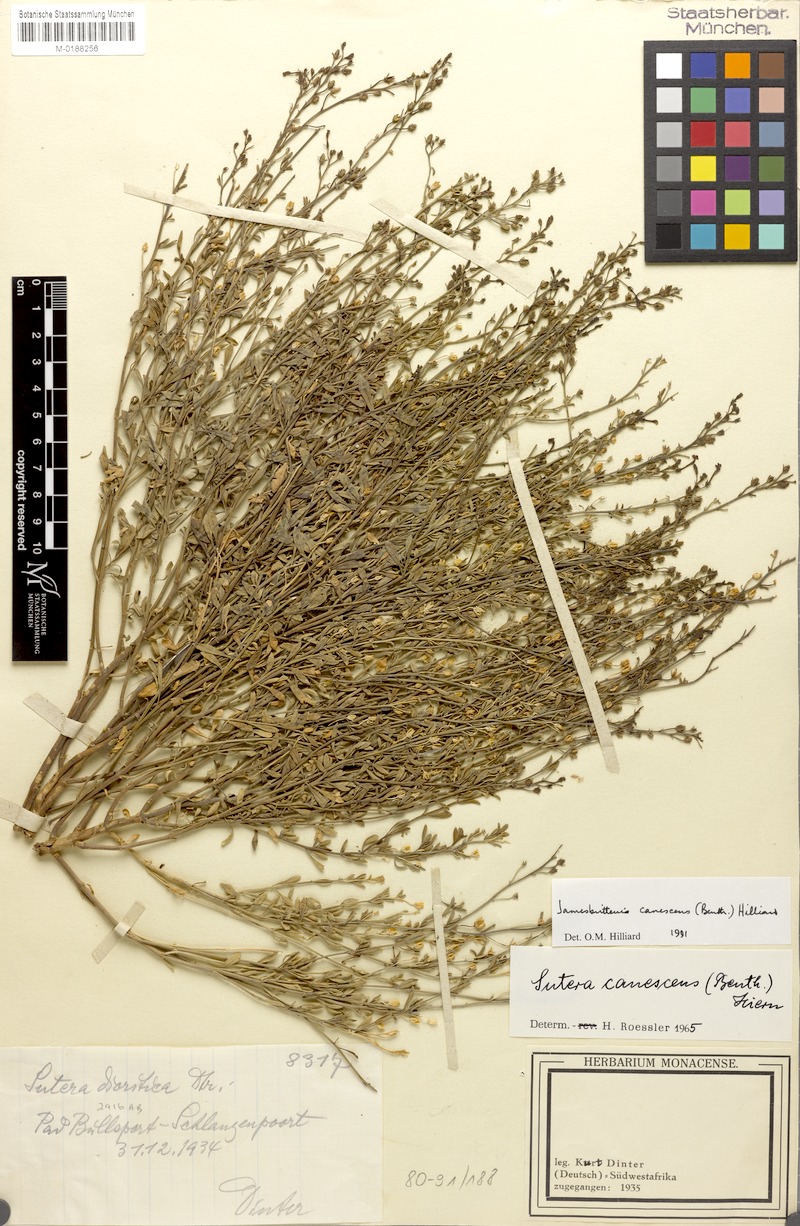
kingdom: Plantae
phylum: Tracheophyta
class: Magnoliopsida
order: Lamiales
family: Scrophulariaceae
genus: Jamesbrittenia
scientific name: Jamesbrittenia canescens
